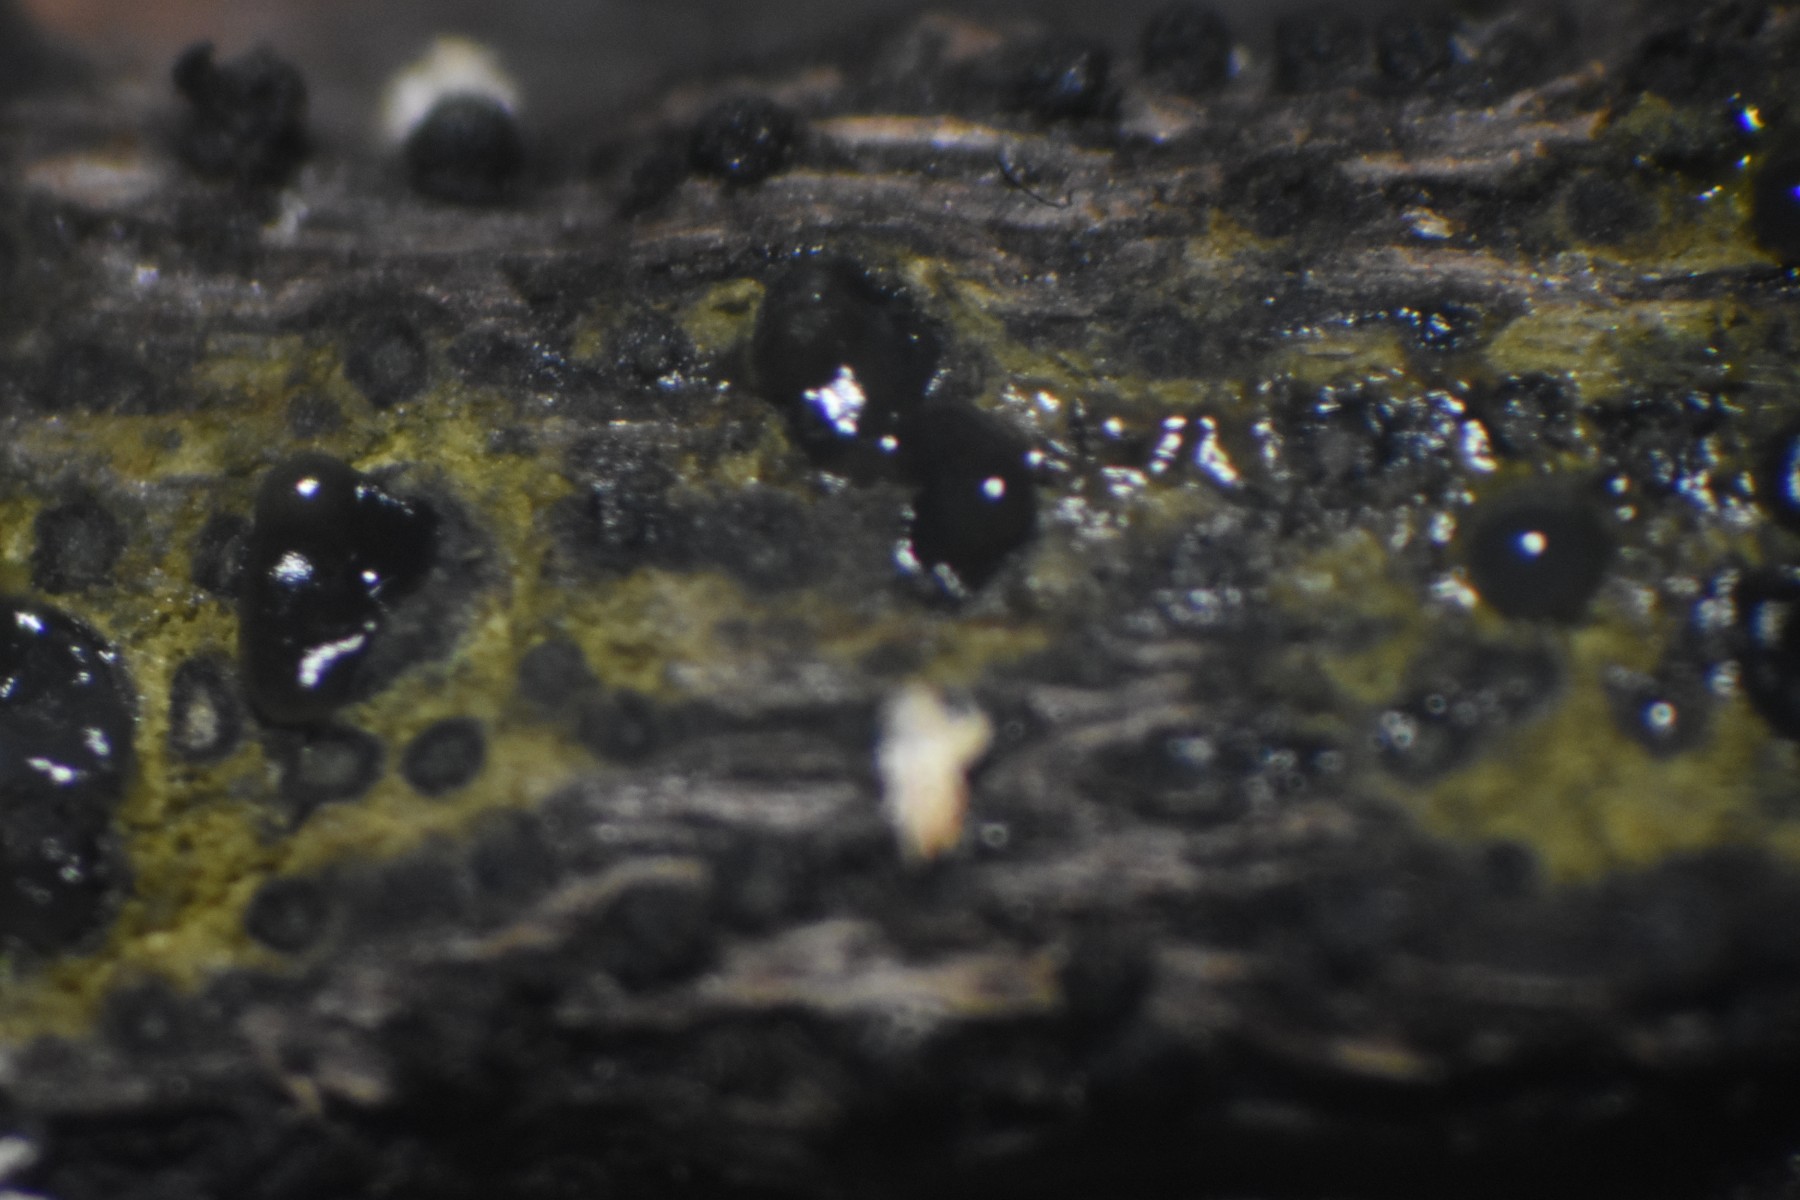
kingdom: Fungi
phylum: Ascomycota
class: Sordariomycetes
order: Xylariales
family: Diatrypaceae
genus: Eutypa
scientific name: Eutypa flavovirens
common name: grønkødet kulskorpe
